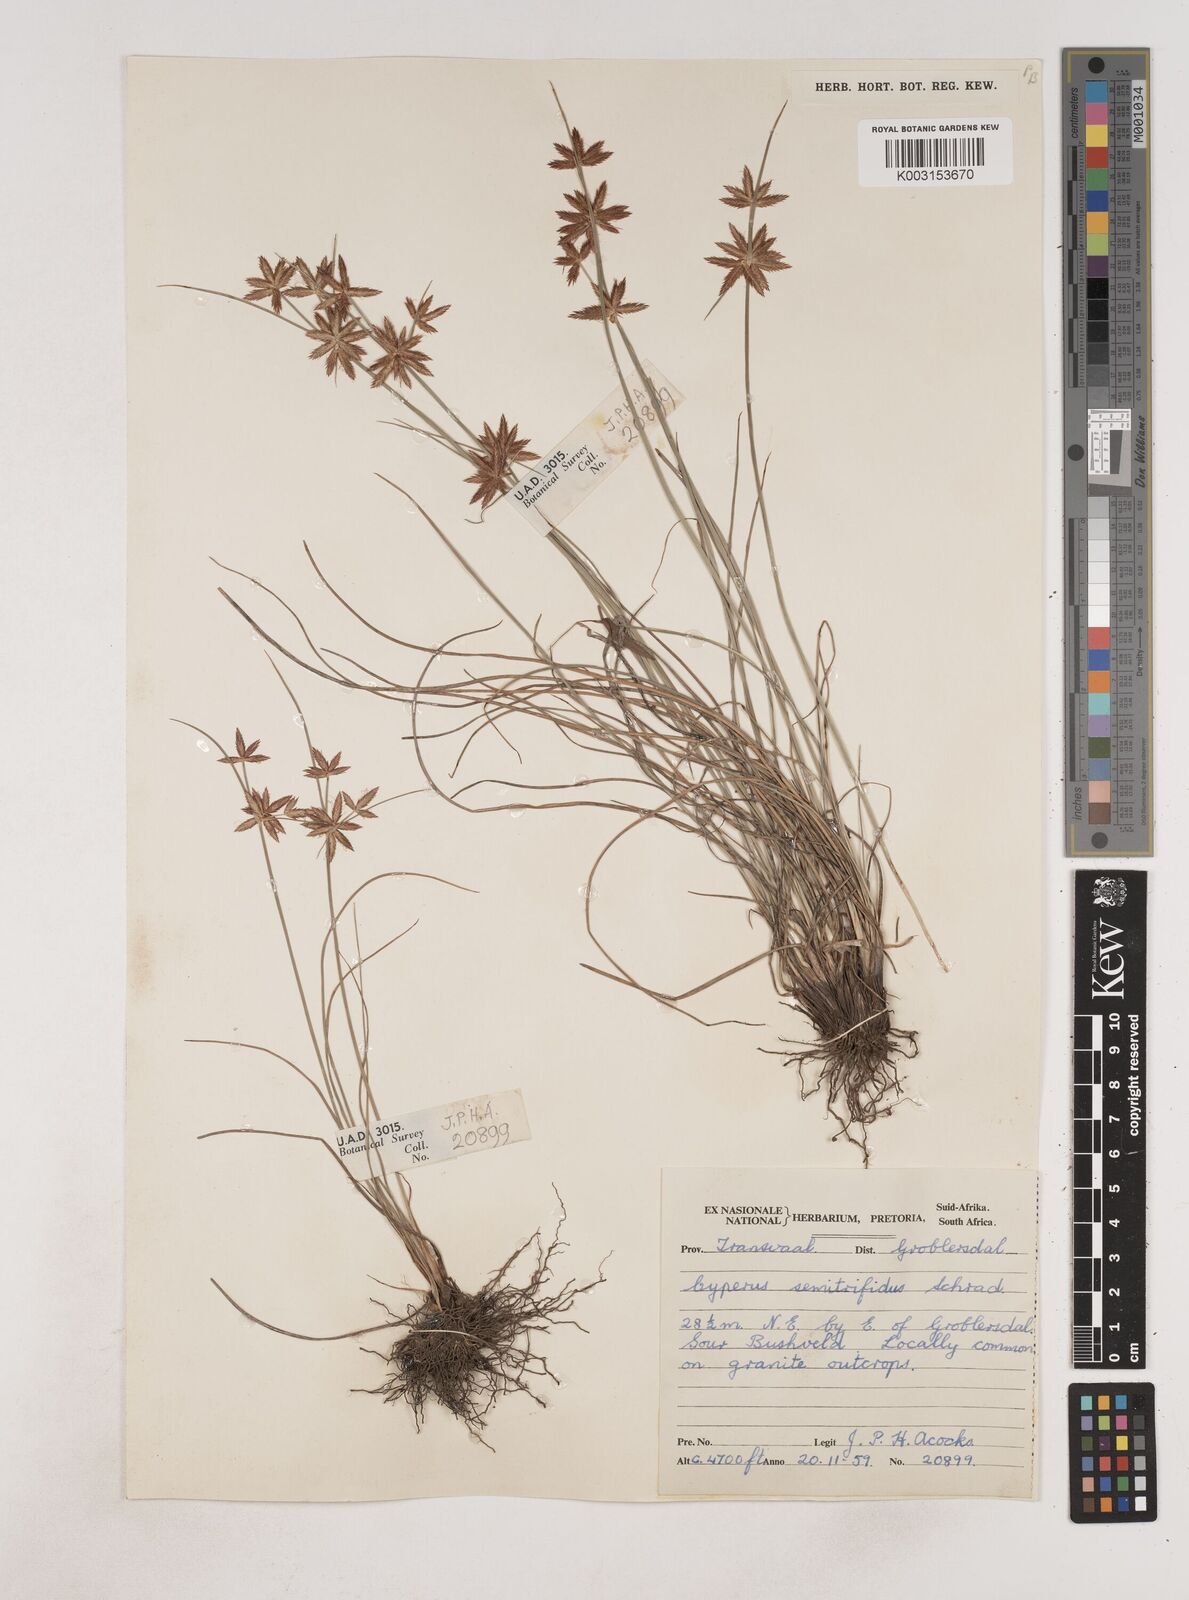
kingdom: Plantae
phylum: Tracheophyta
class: Liliopsida
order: Poales
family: Cyperaceae
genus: Cyperus
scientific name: Cyperus semitrifidus
